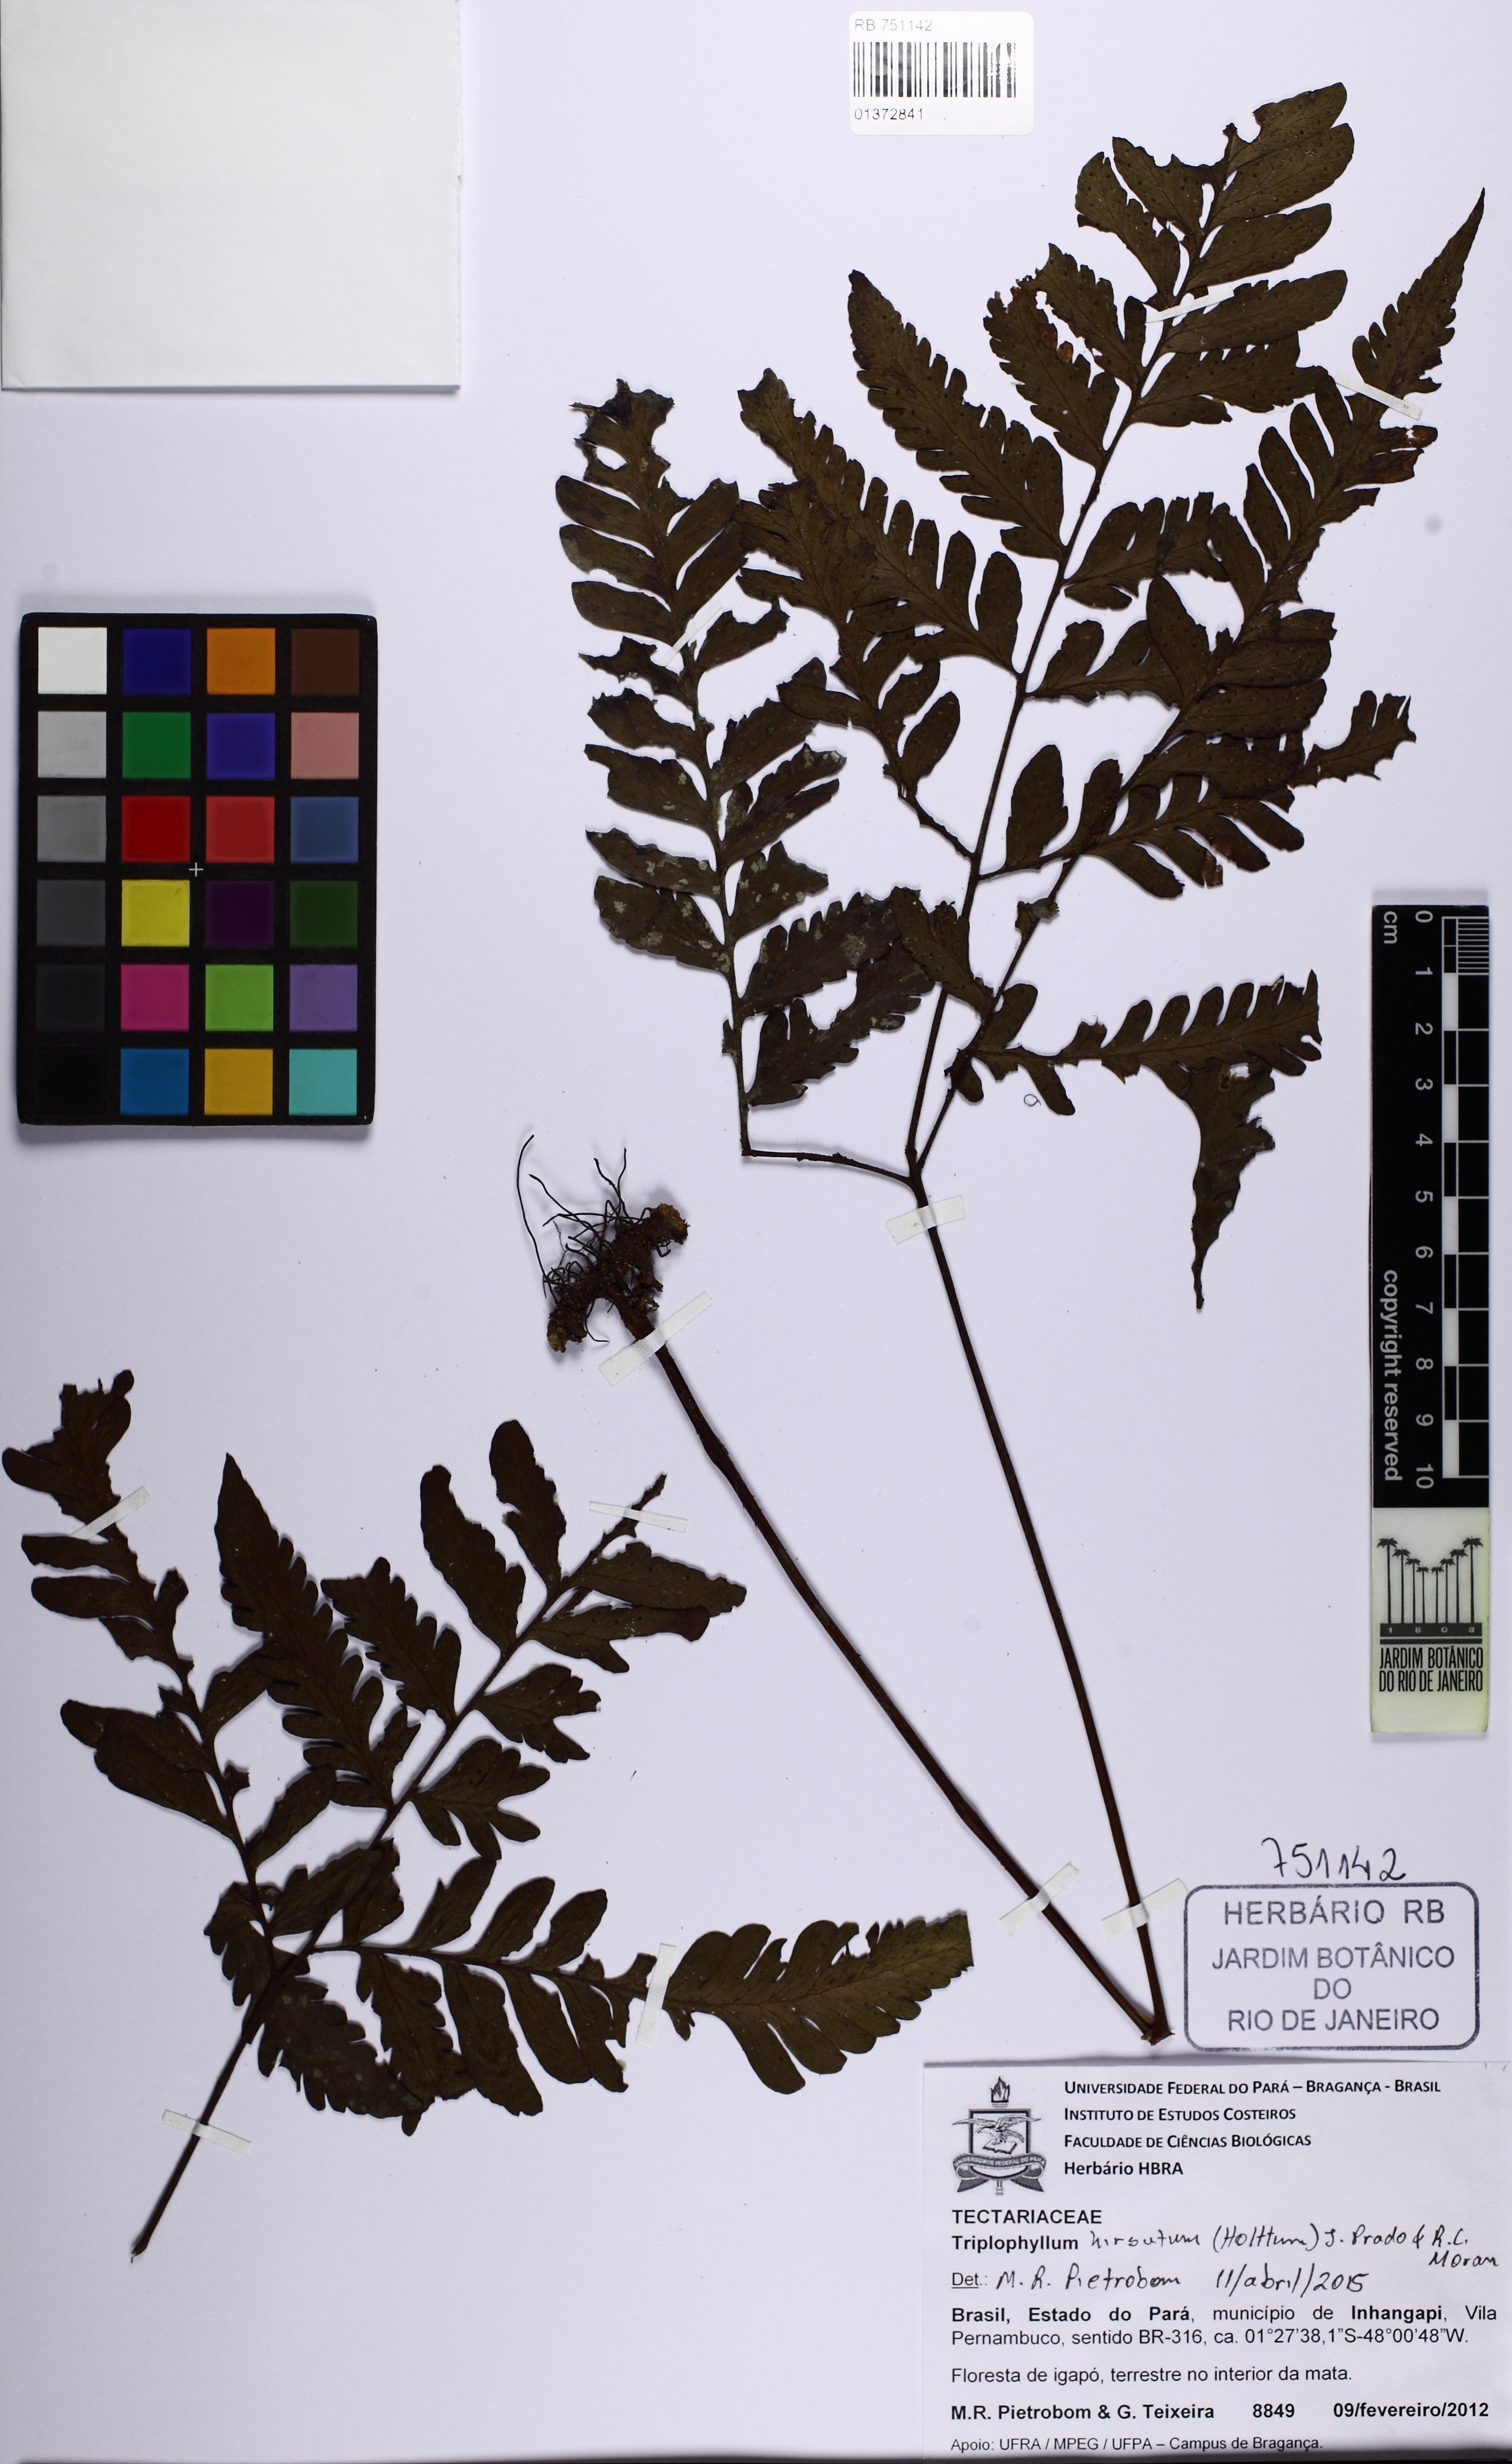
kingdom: Plantae
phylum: Tracheophyta
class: Polypodiopsida
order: Polypodiales
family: Tectariaceae
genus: Triplophyllum
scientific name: Triplophyllum hirsutum
